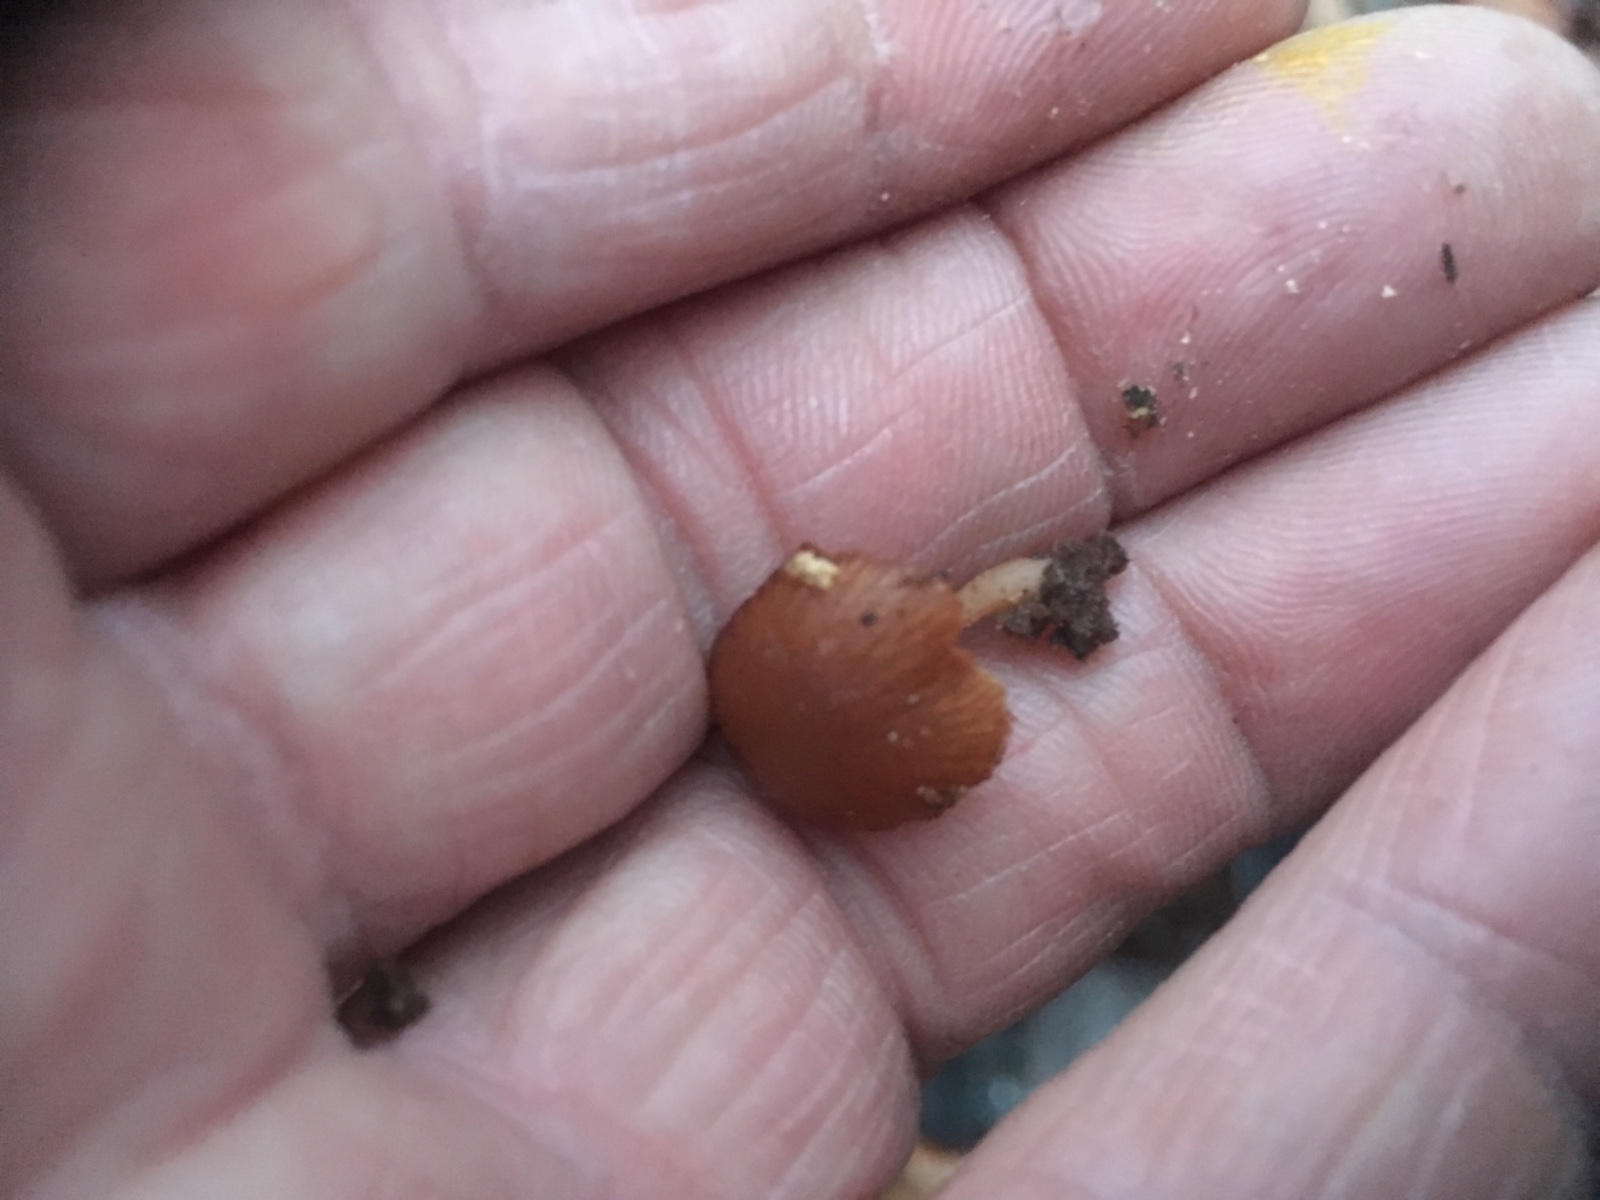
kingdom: Fungi
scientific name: Fungi
